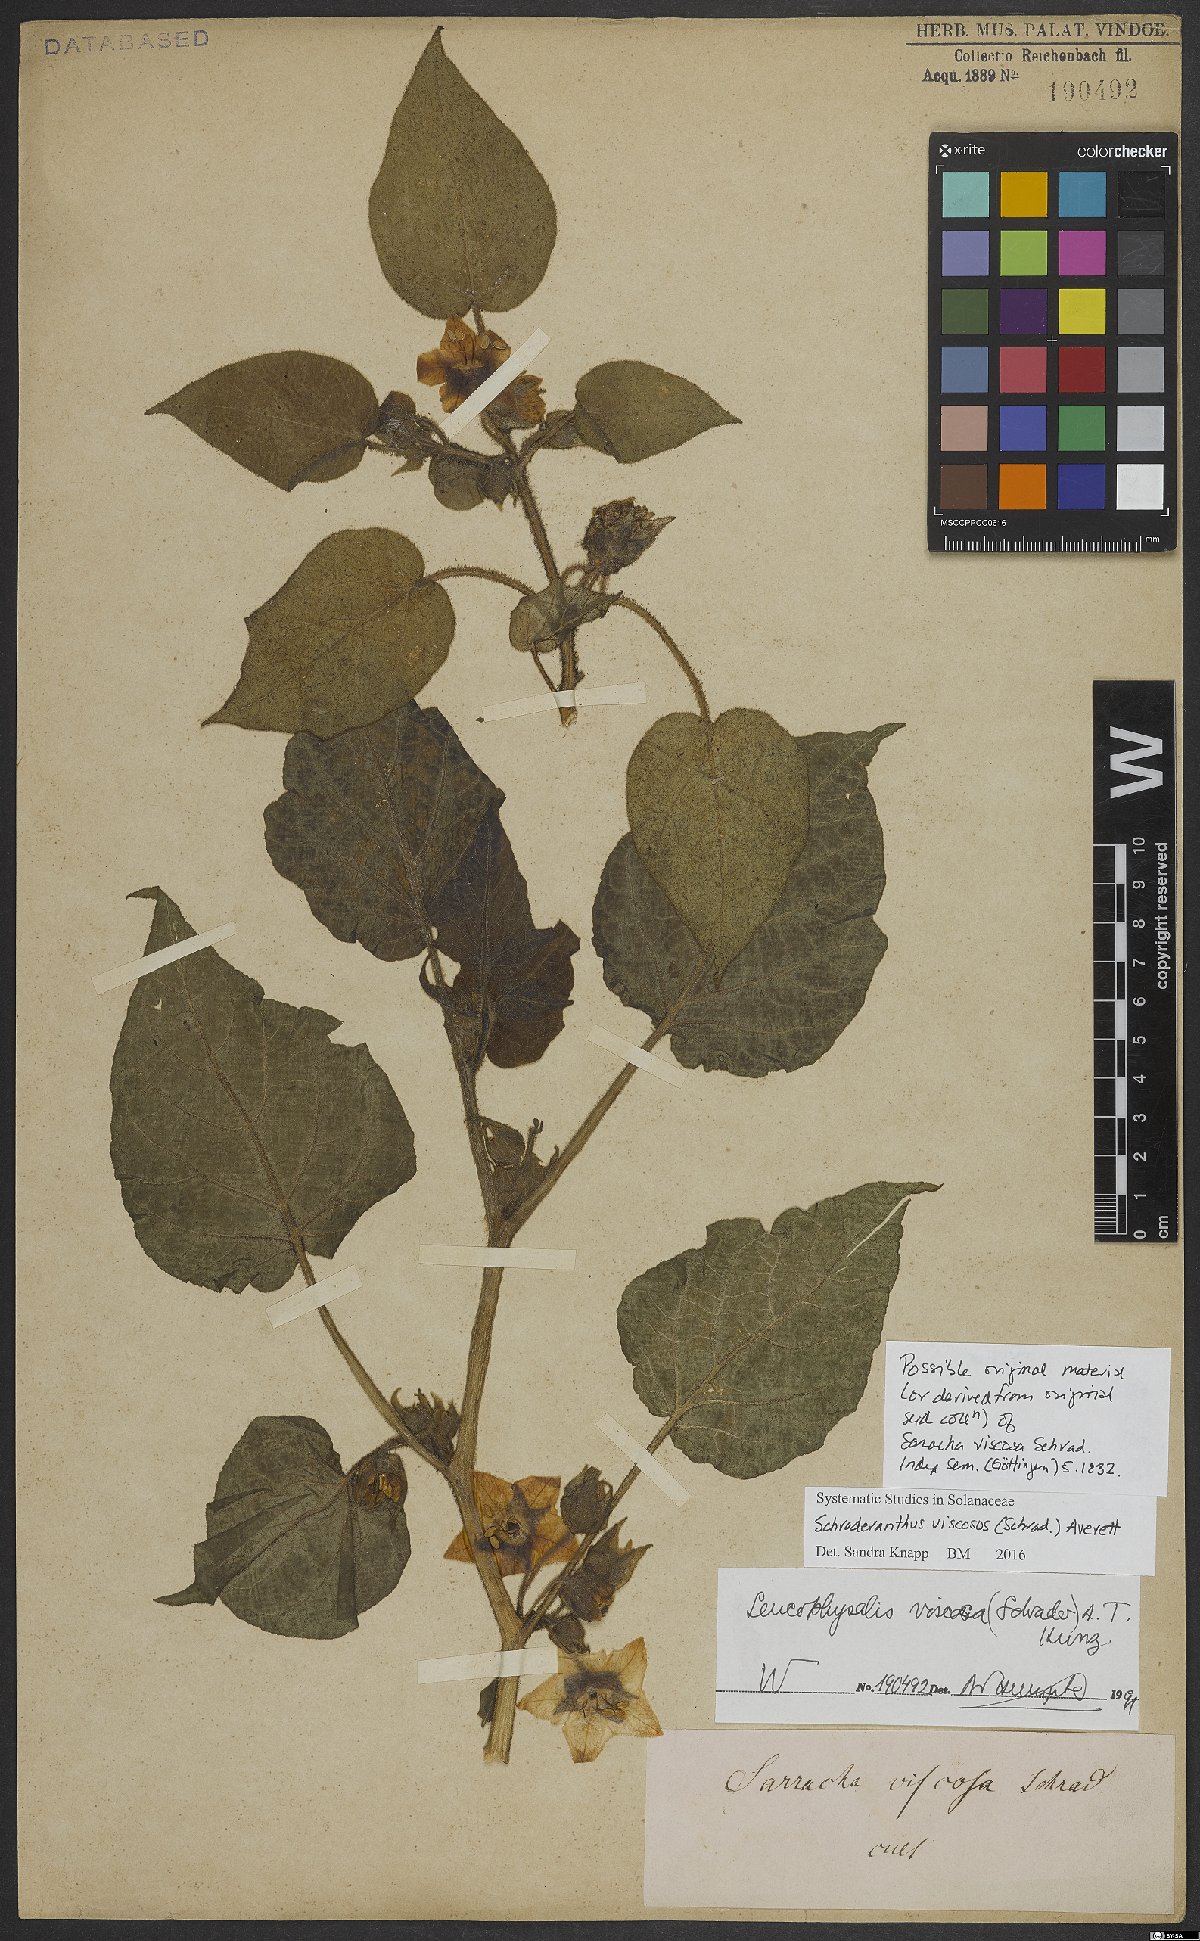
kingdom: Plantae
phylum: Tracheophyta
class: Magnoliopsida
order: Solanales
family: Solanaceae
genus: Schraderanthus
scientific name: Schraderanthus viscosus
